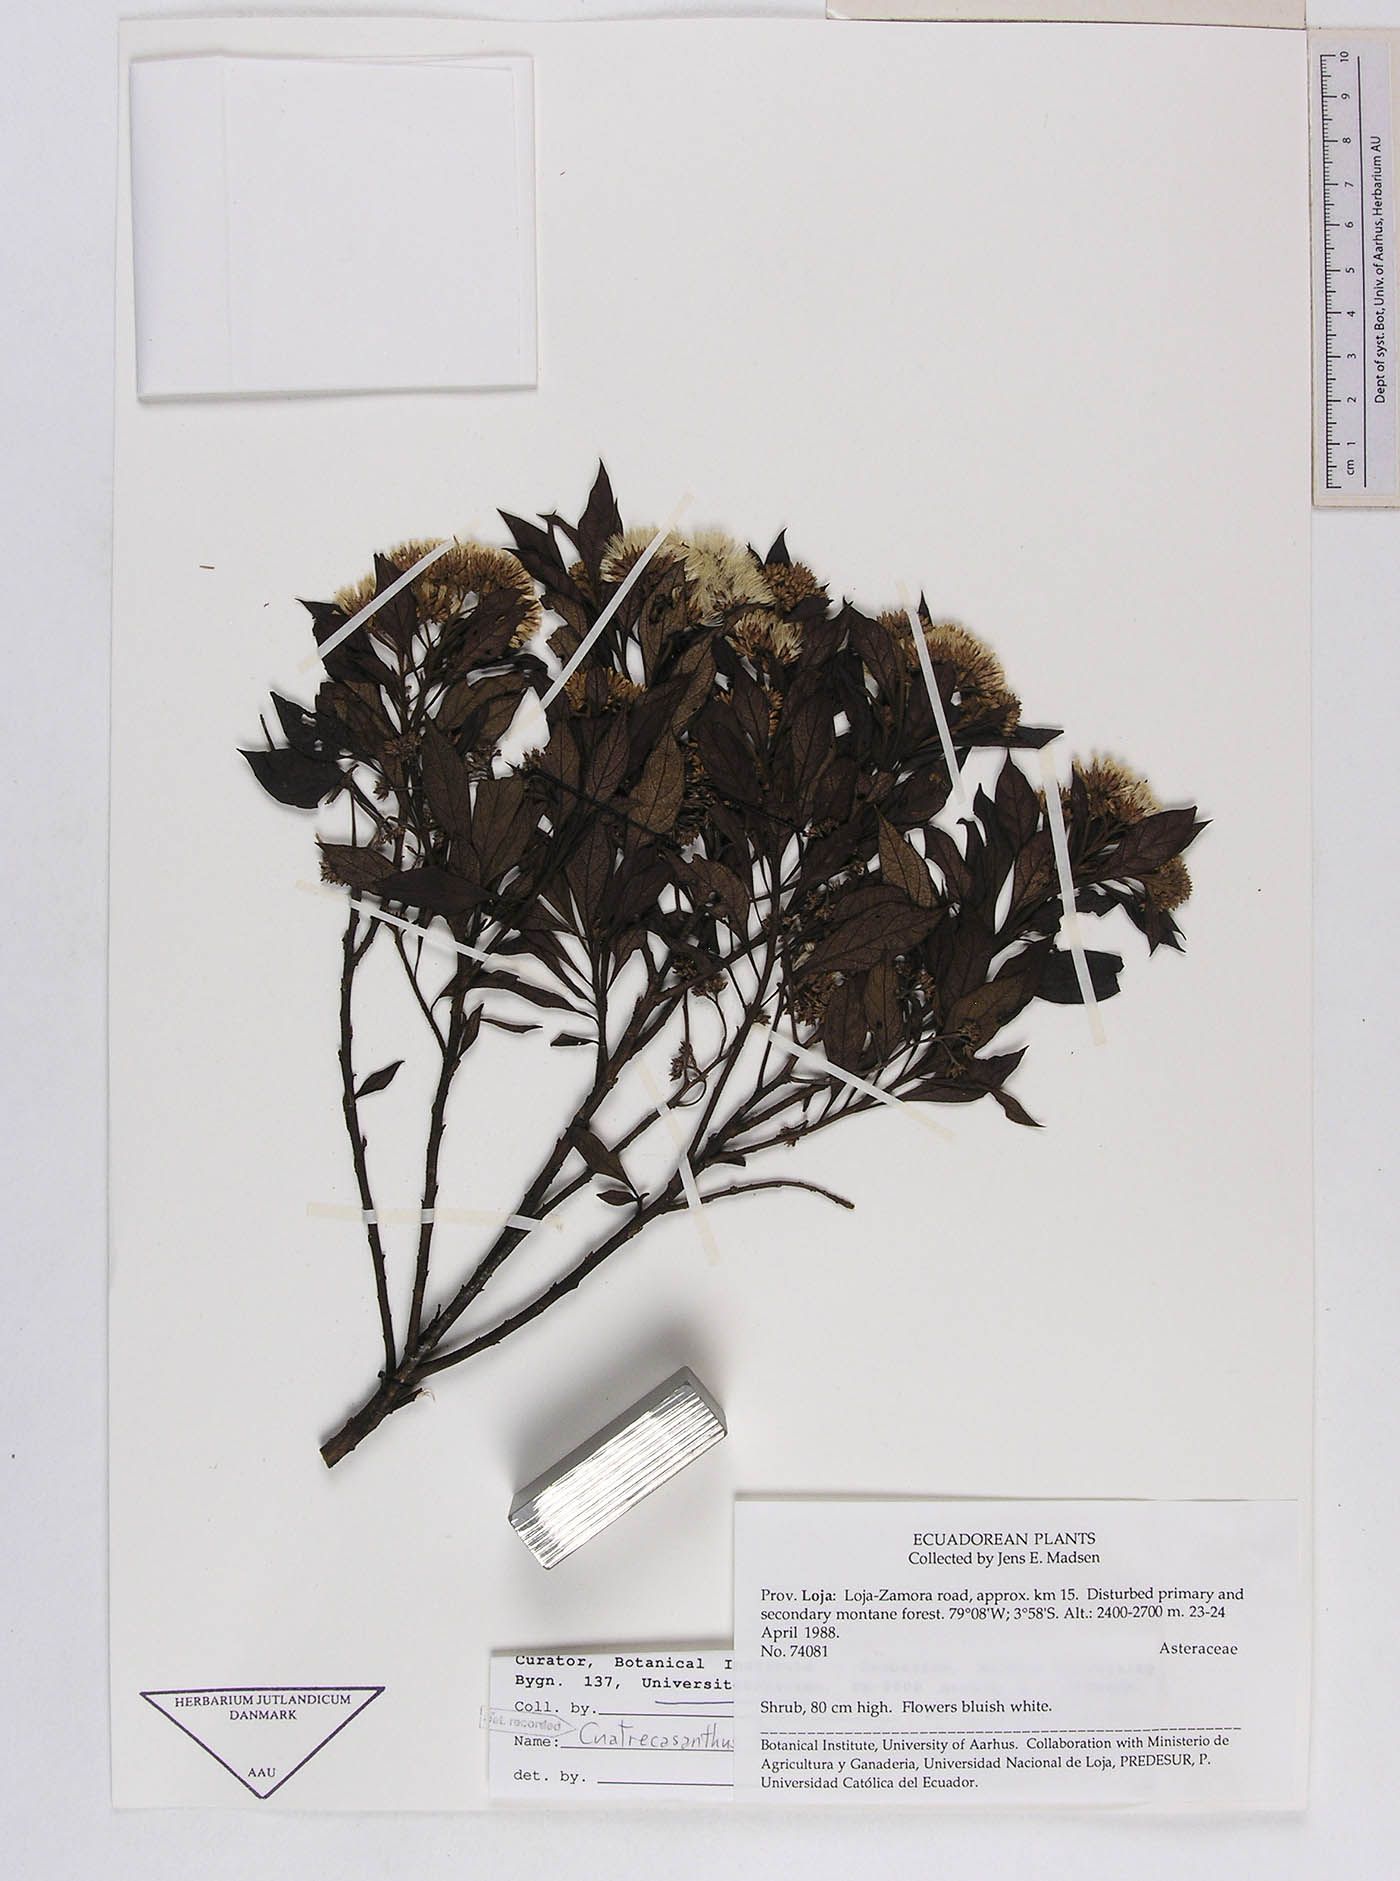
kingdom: Plantae
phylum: Tracheophyta
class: Magnoliopsida
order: Asterales
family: Asteraceae
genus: Cuatrecasanthus
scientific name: Cuatrecasanthus flexipappus
